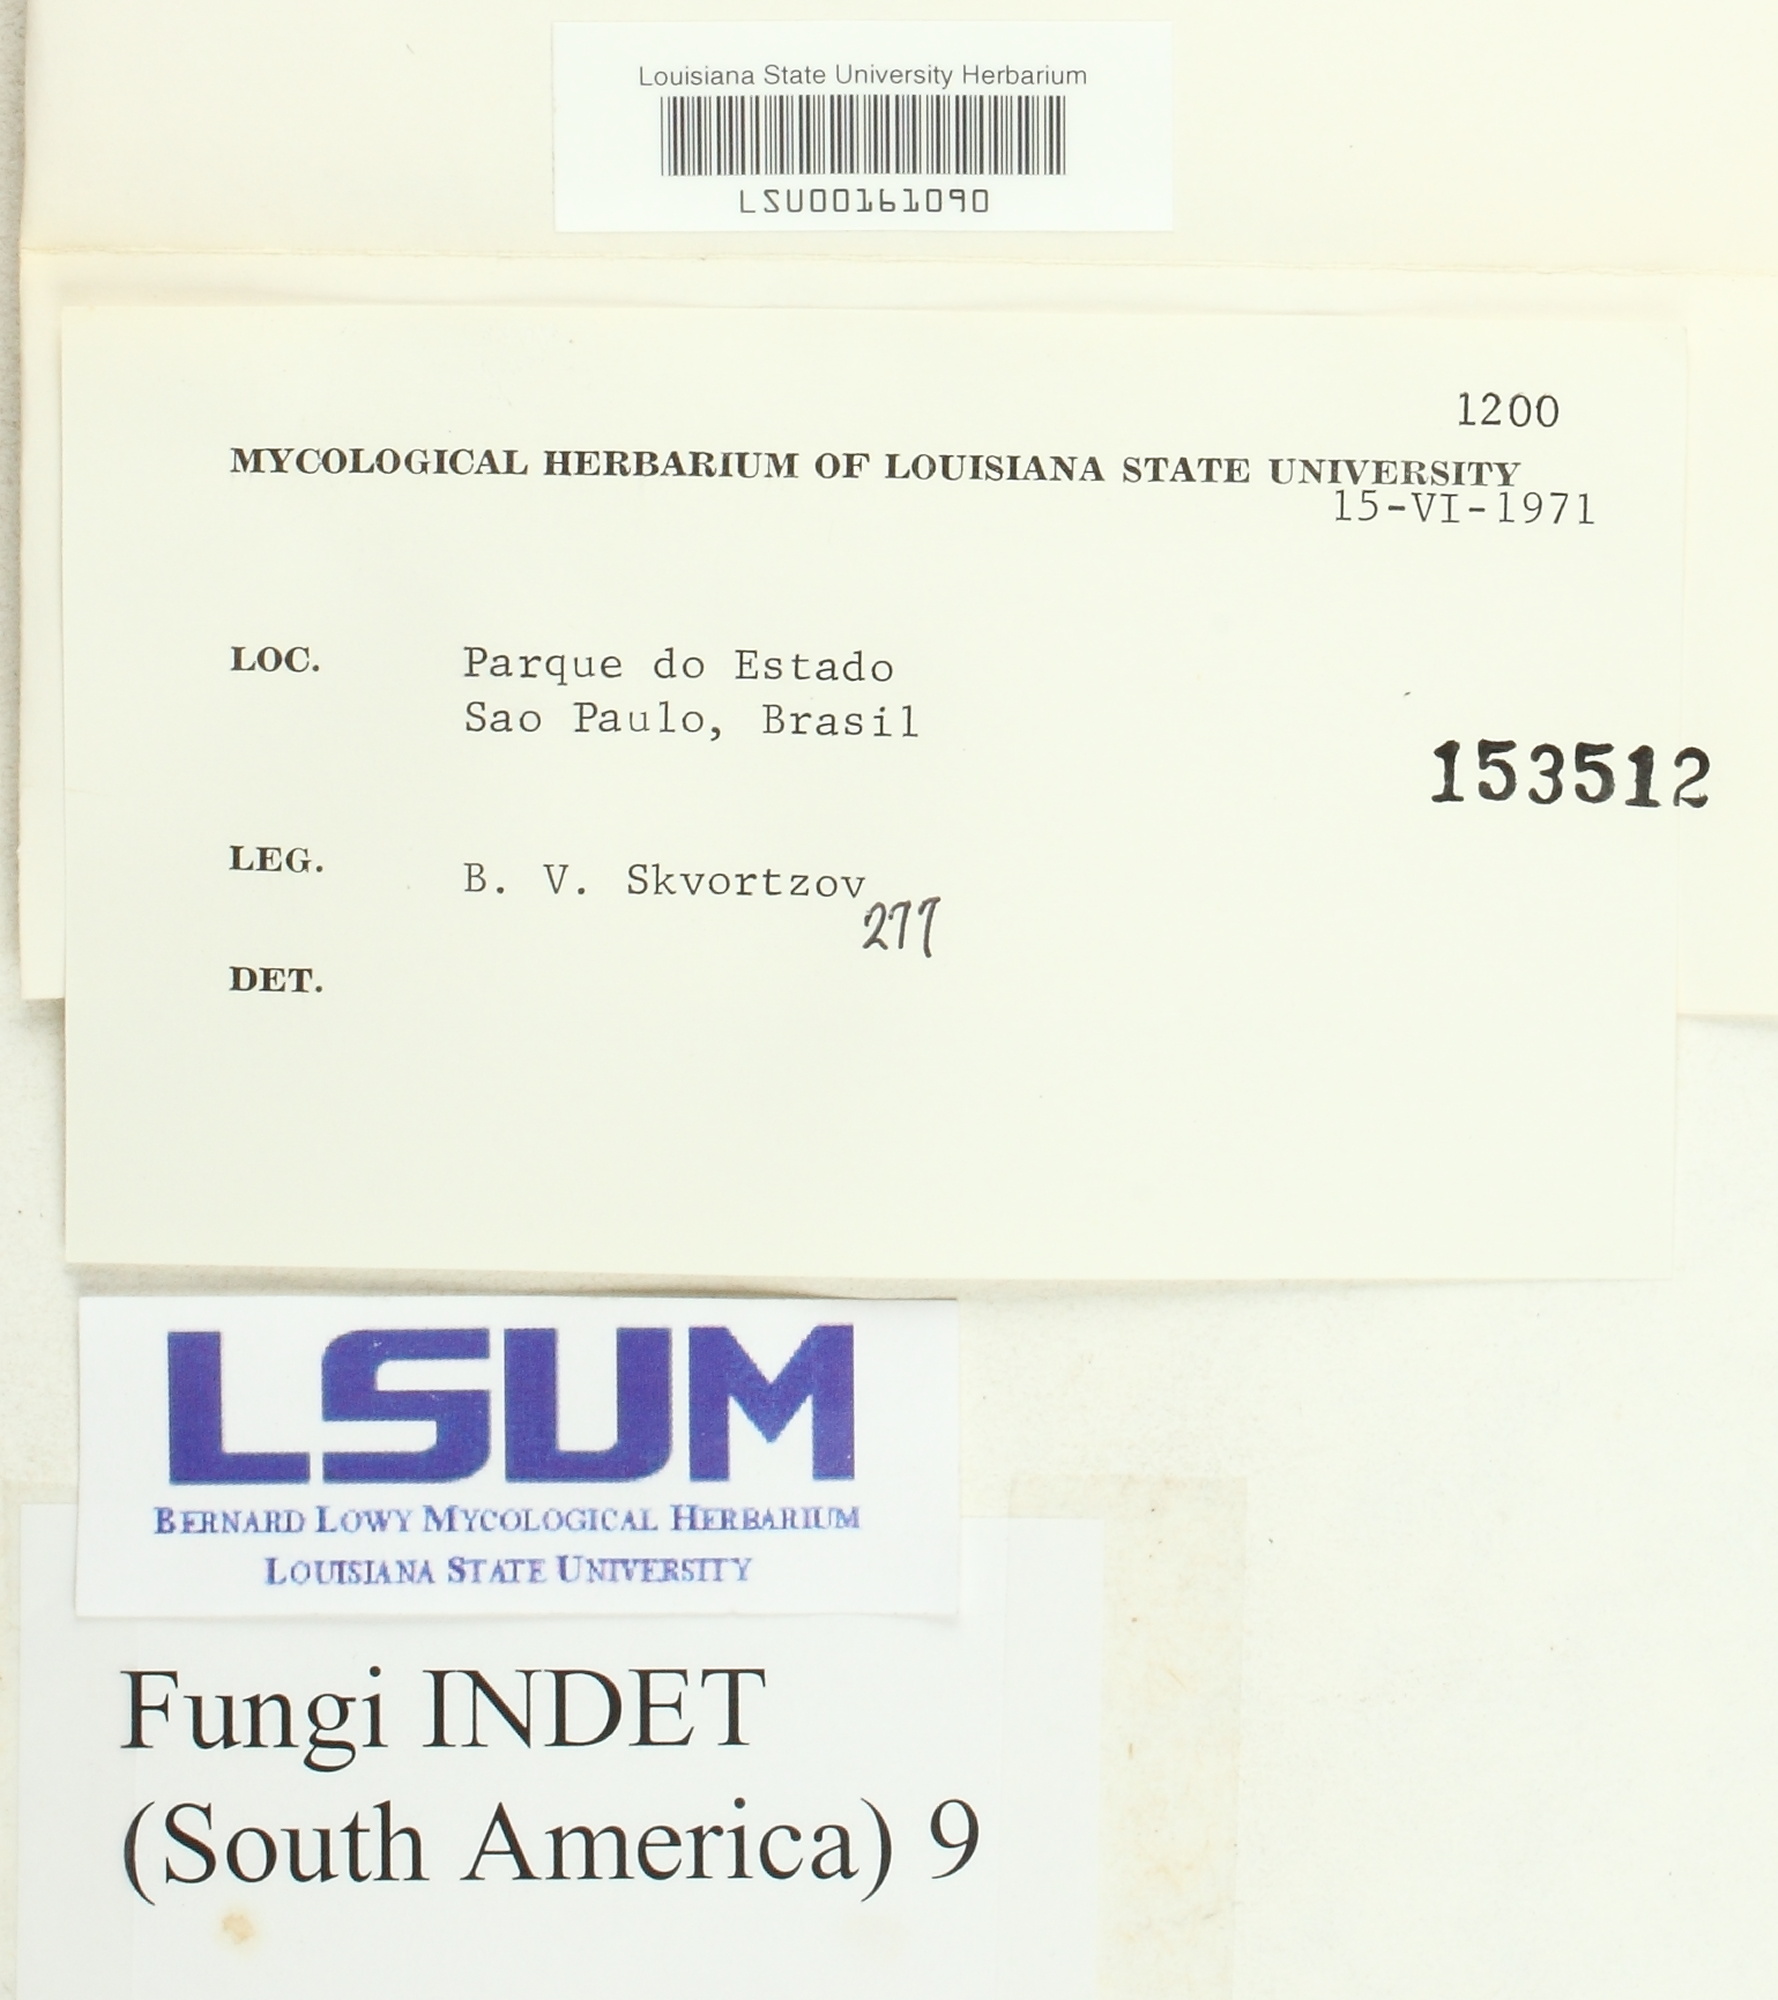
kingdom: Fungi
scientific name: Fungi
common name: Fungi
